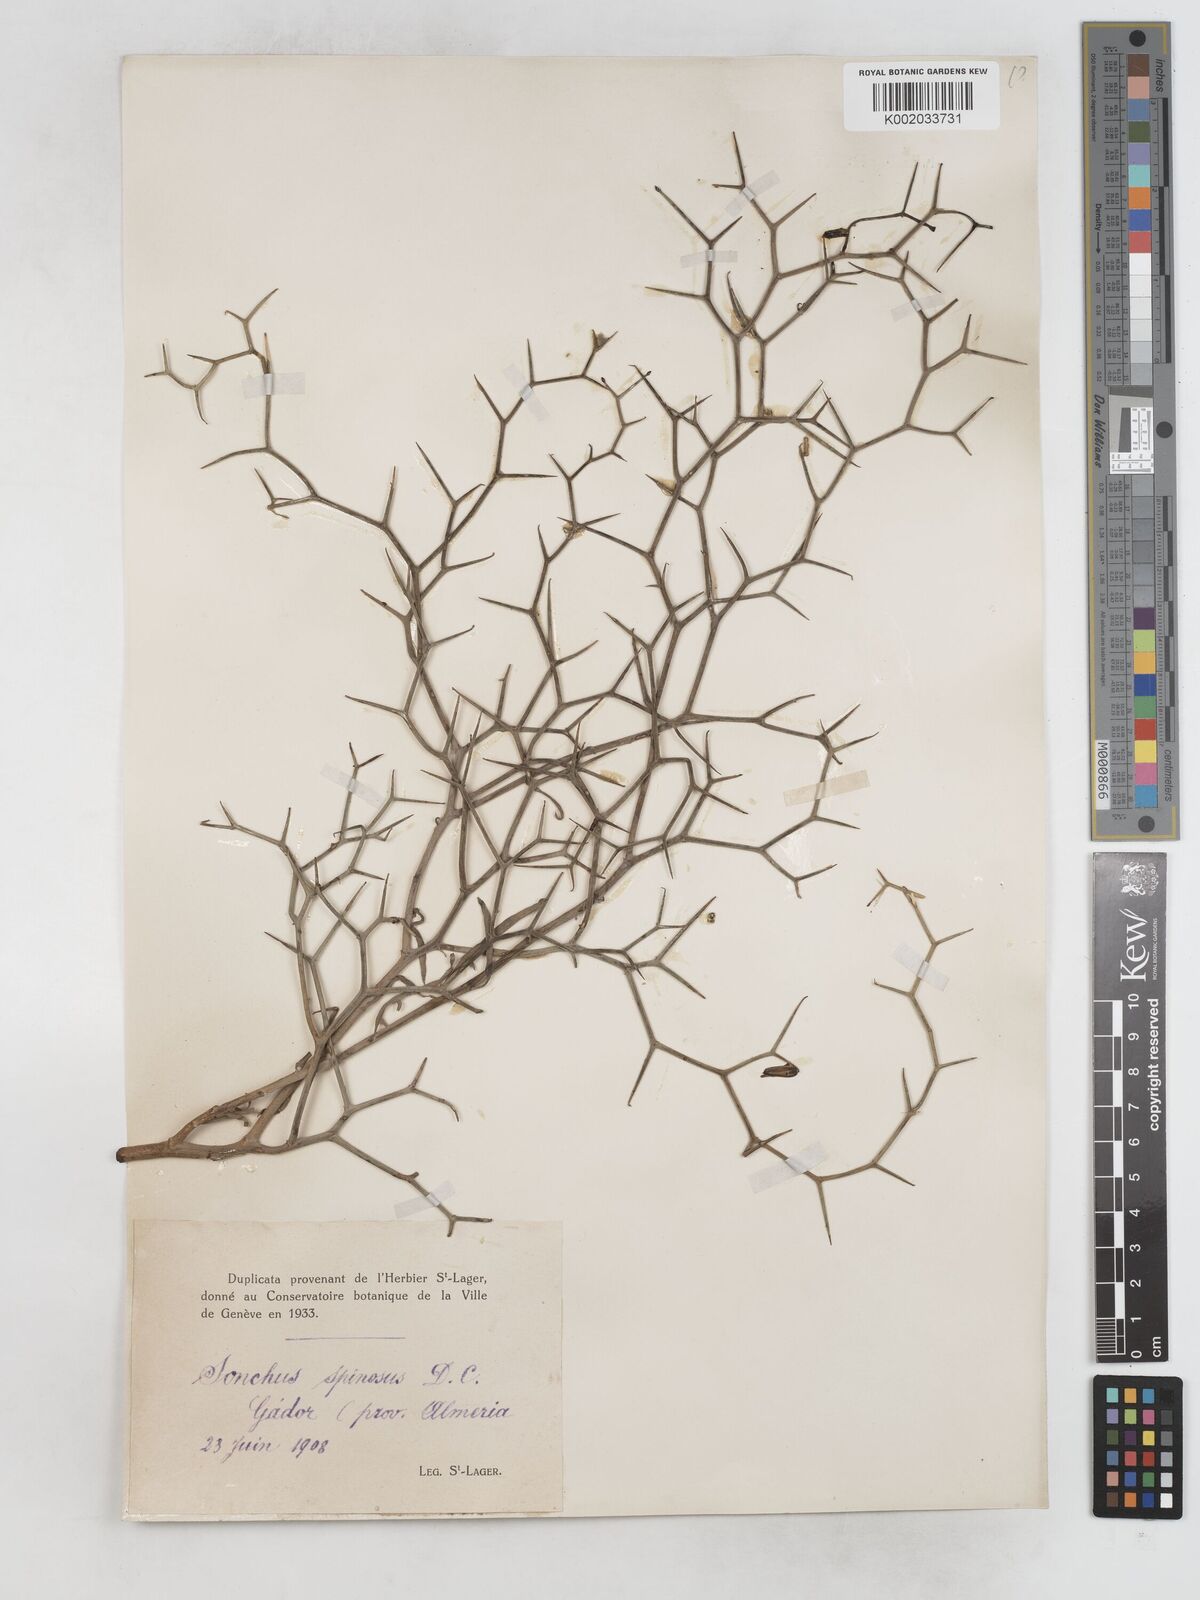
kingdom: Plantae
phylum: Tracheophyta
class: Magnoliopsida
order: Asterales
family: Asteraceae
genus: Launaea
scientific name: Launaea arborescens
